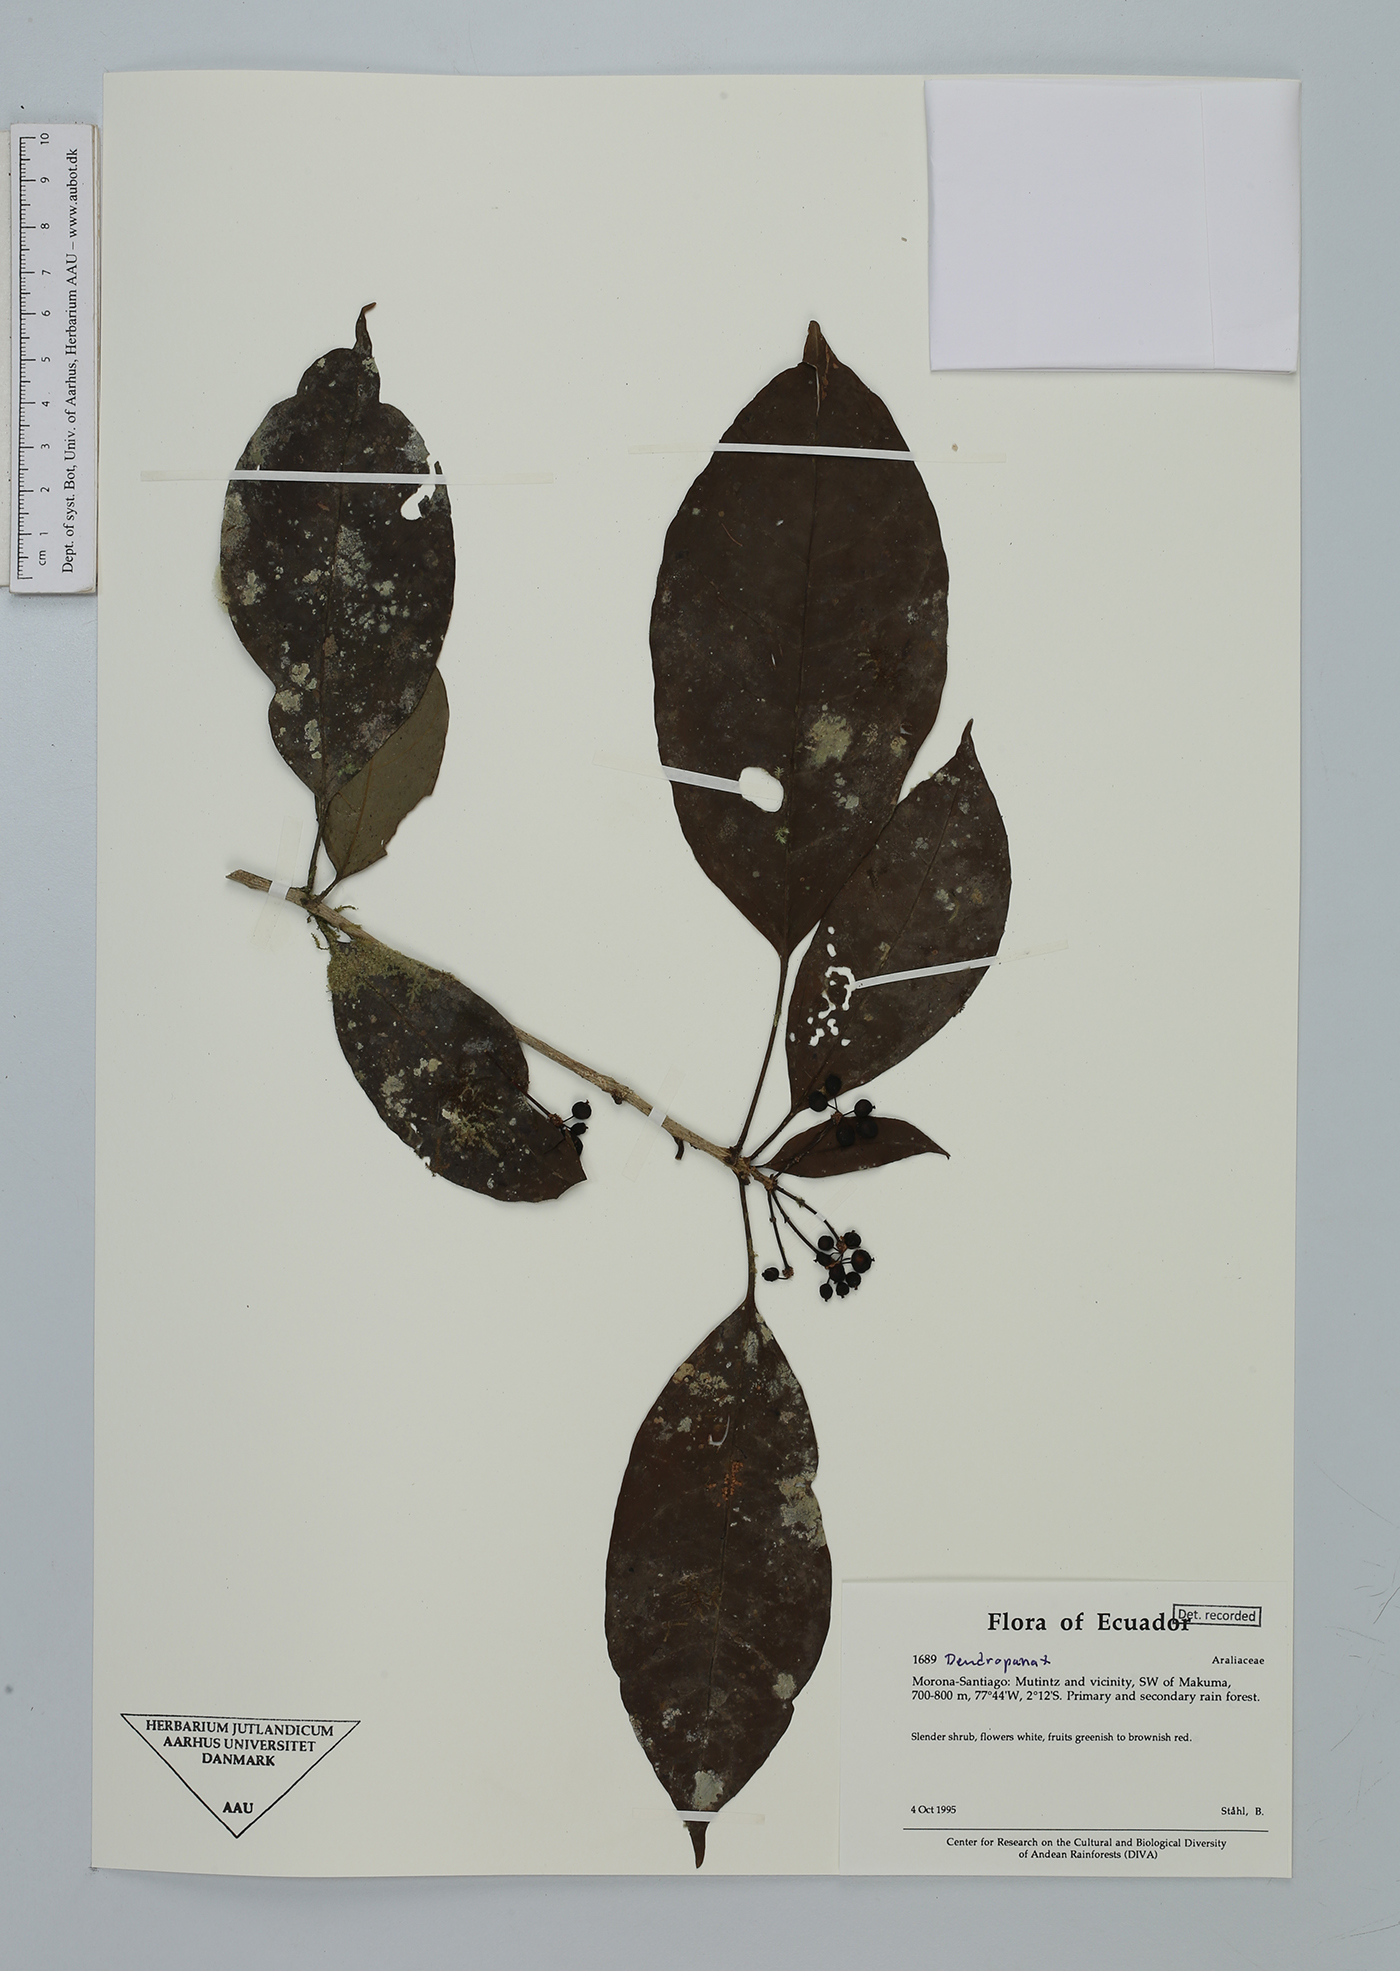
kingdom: Plantae
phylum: Tracheophyta
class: Magnoliopsida
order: Apiales
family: Araliaceae
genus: Dendropanax
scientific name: Dendropanax
